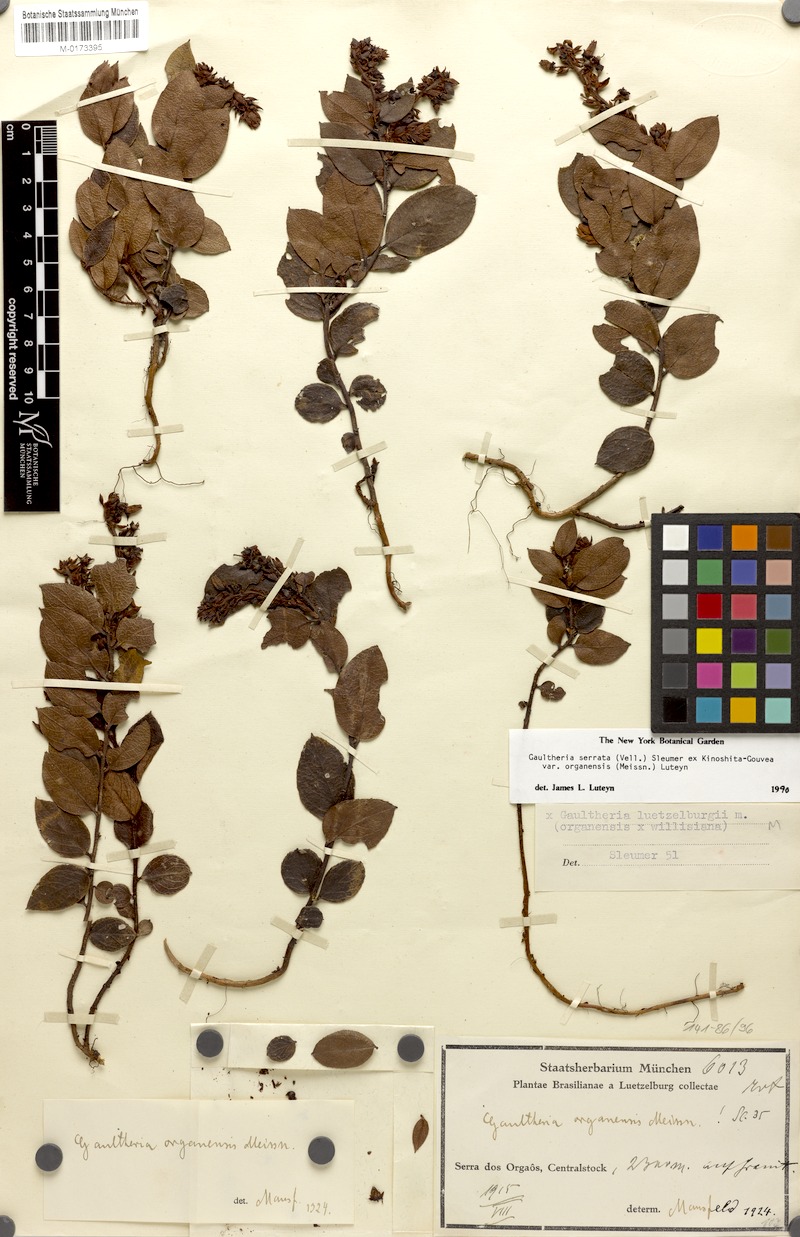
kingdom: Plantae
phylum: Tracheophyta
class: Magnoliopsida
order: Ericales
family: Ericaceae
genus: Gaultheria
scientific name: Gaultheria serrata
